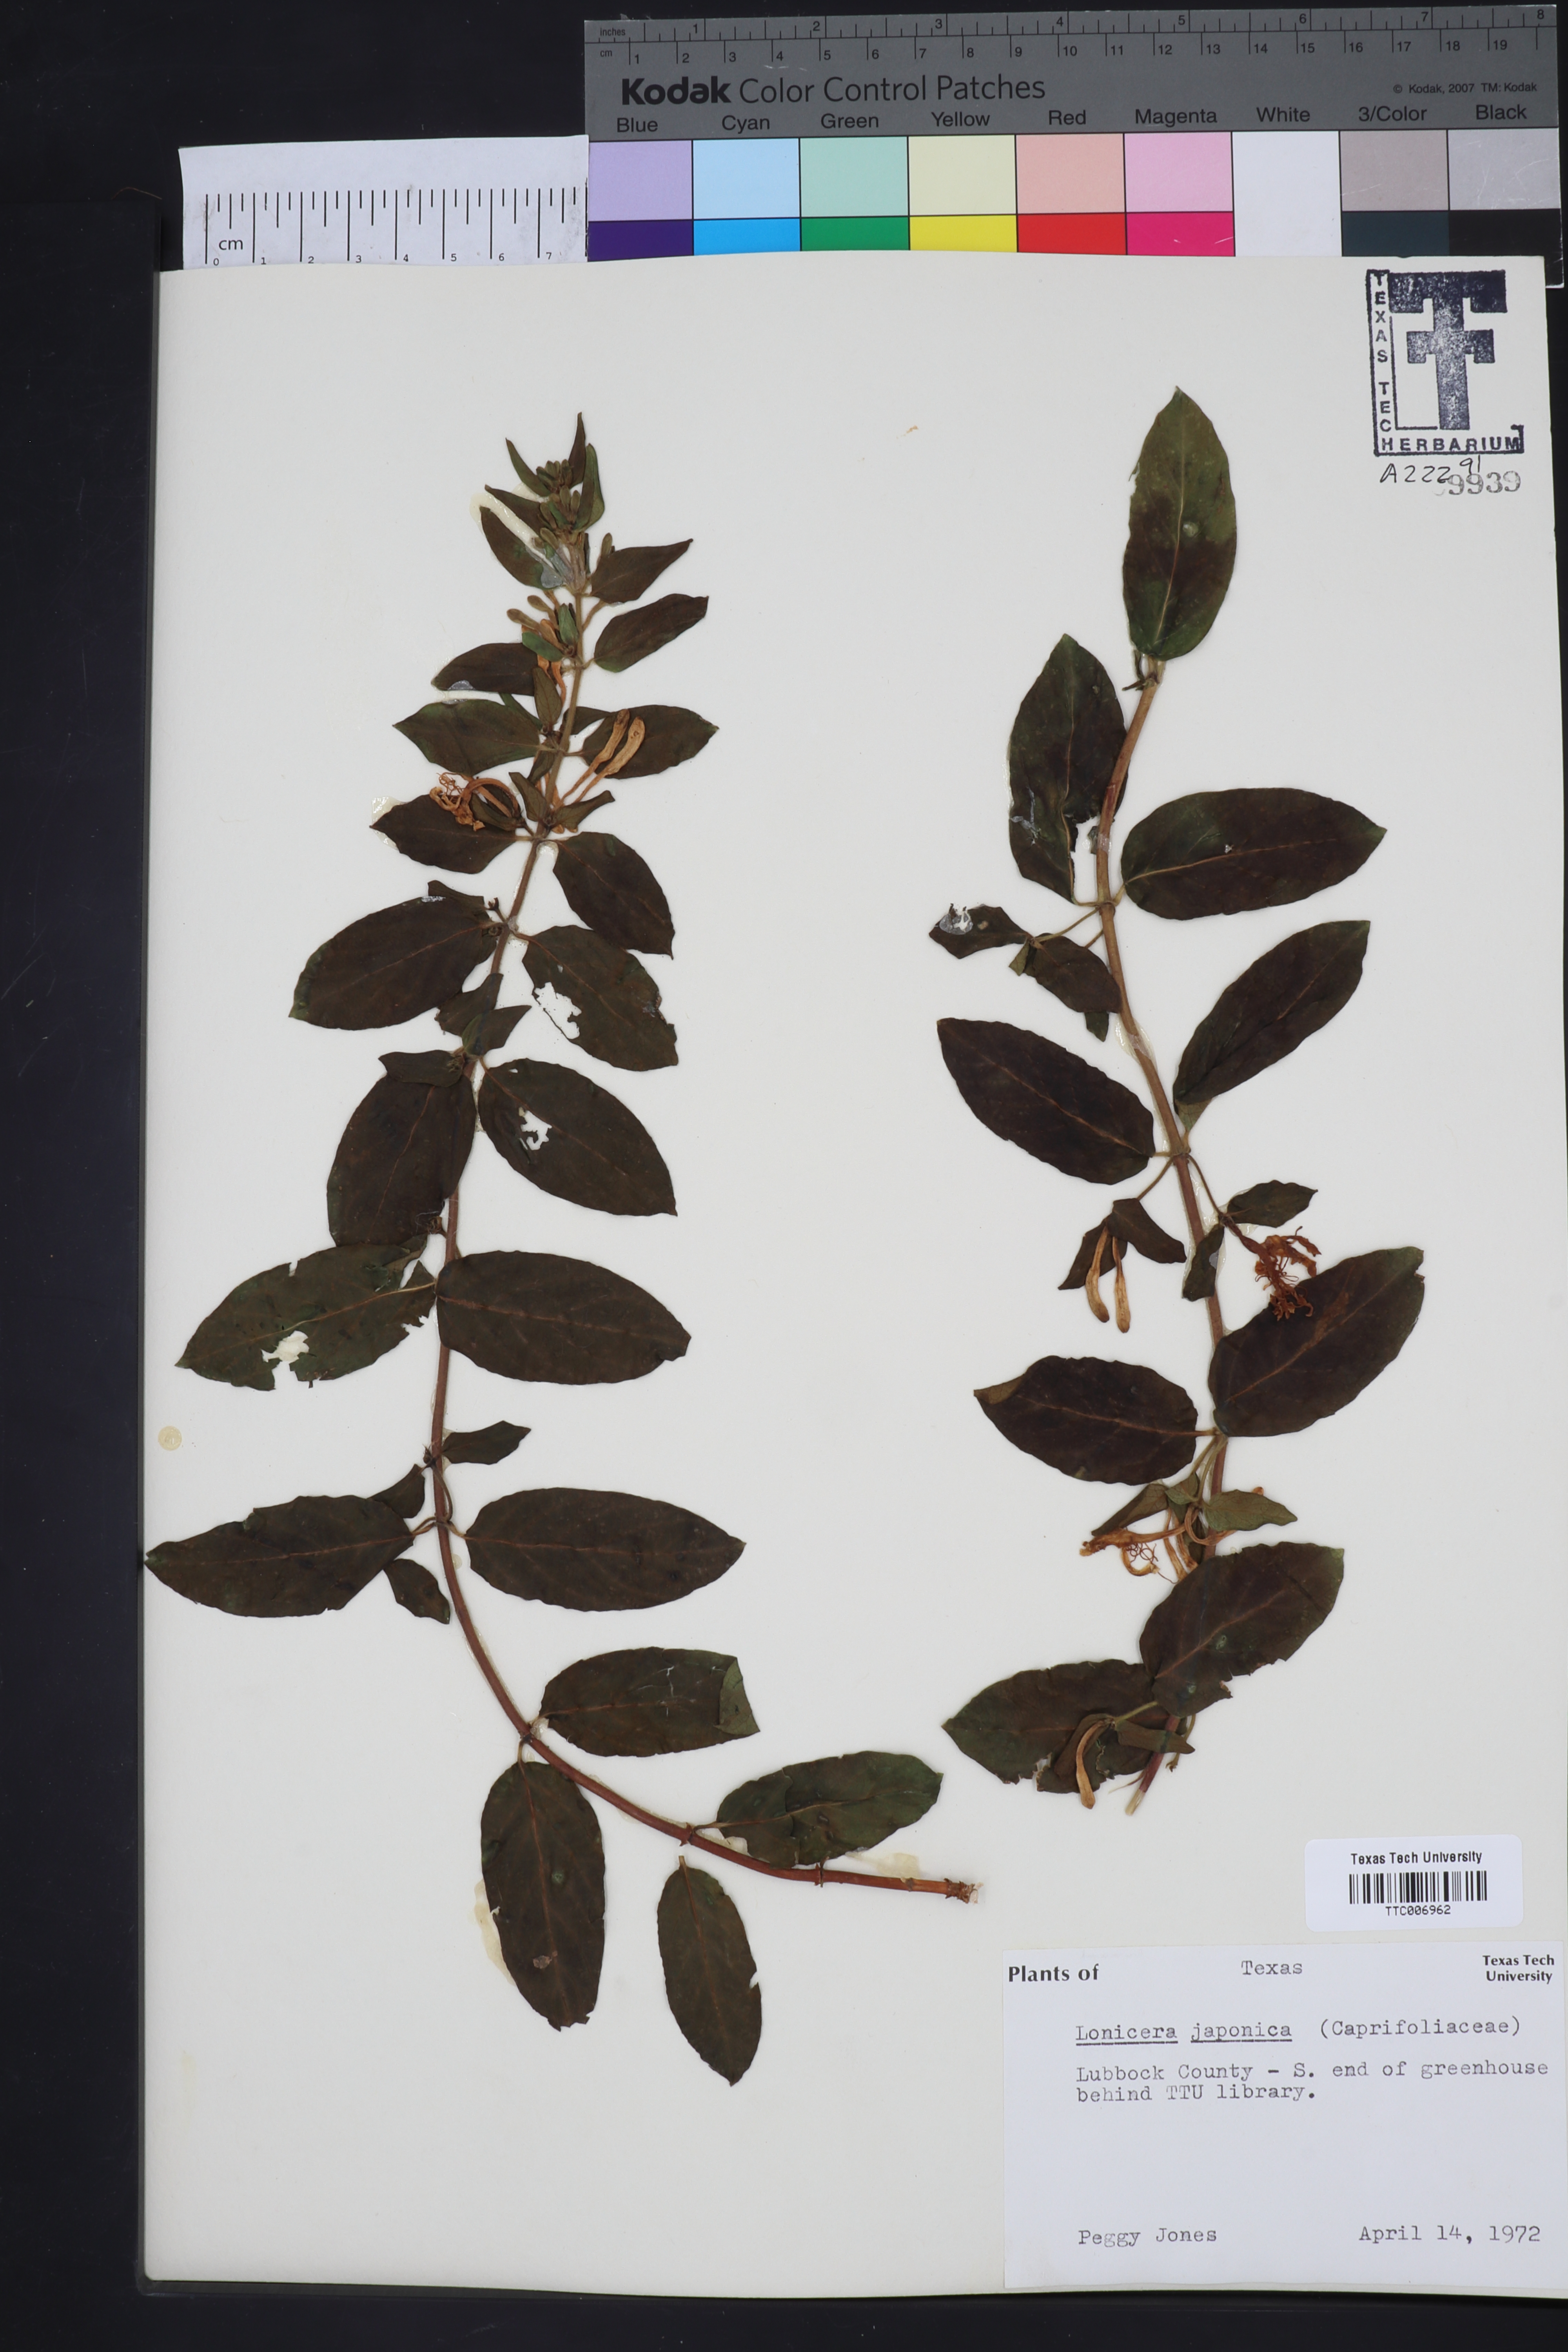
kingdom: Plantae
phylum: Tracheophyta
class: Magnoliopsida
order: Dipsacales
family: Caprifoliaceae
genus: Lonicera
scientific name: Lonicera japonica
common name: Japanese honeysuckle
